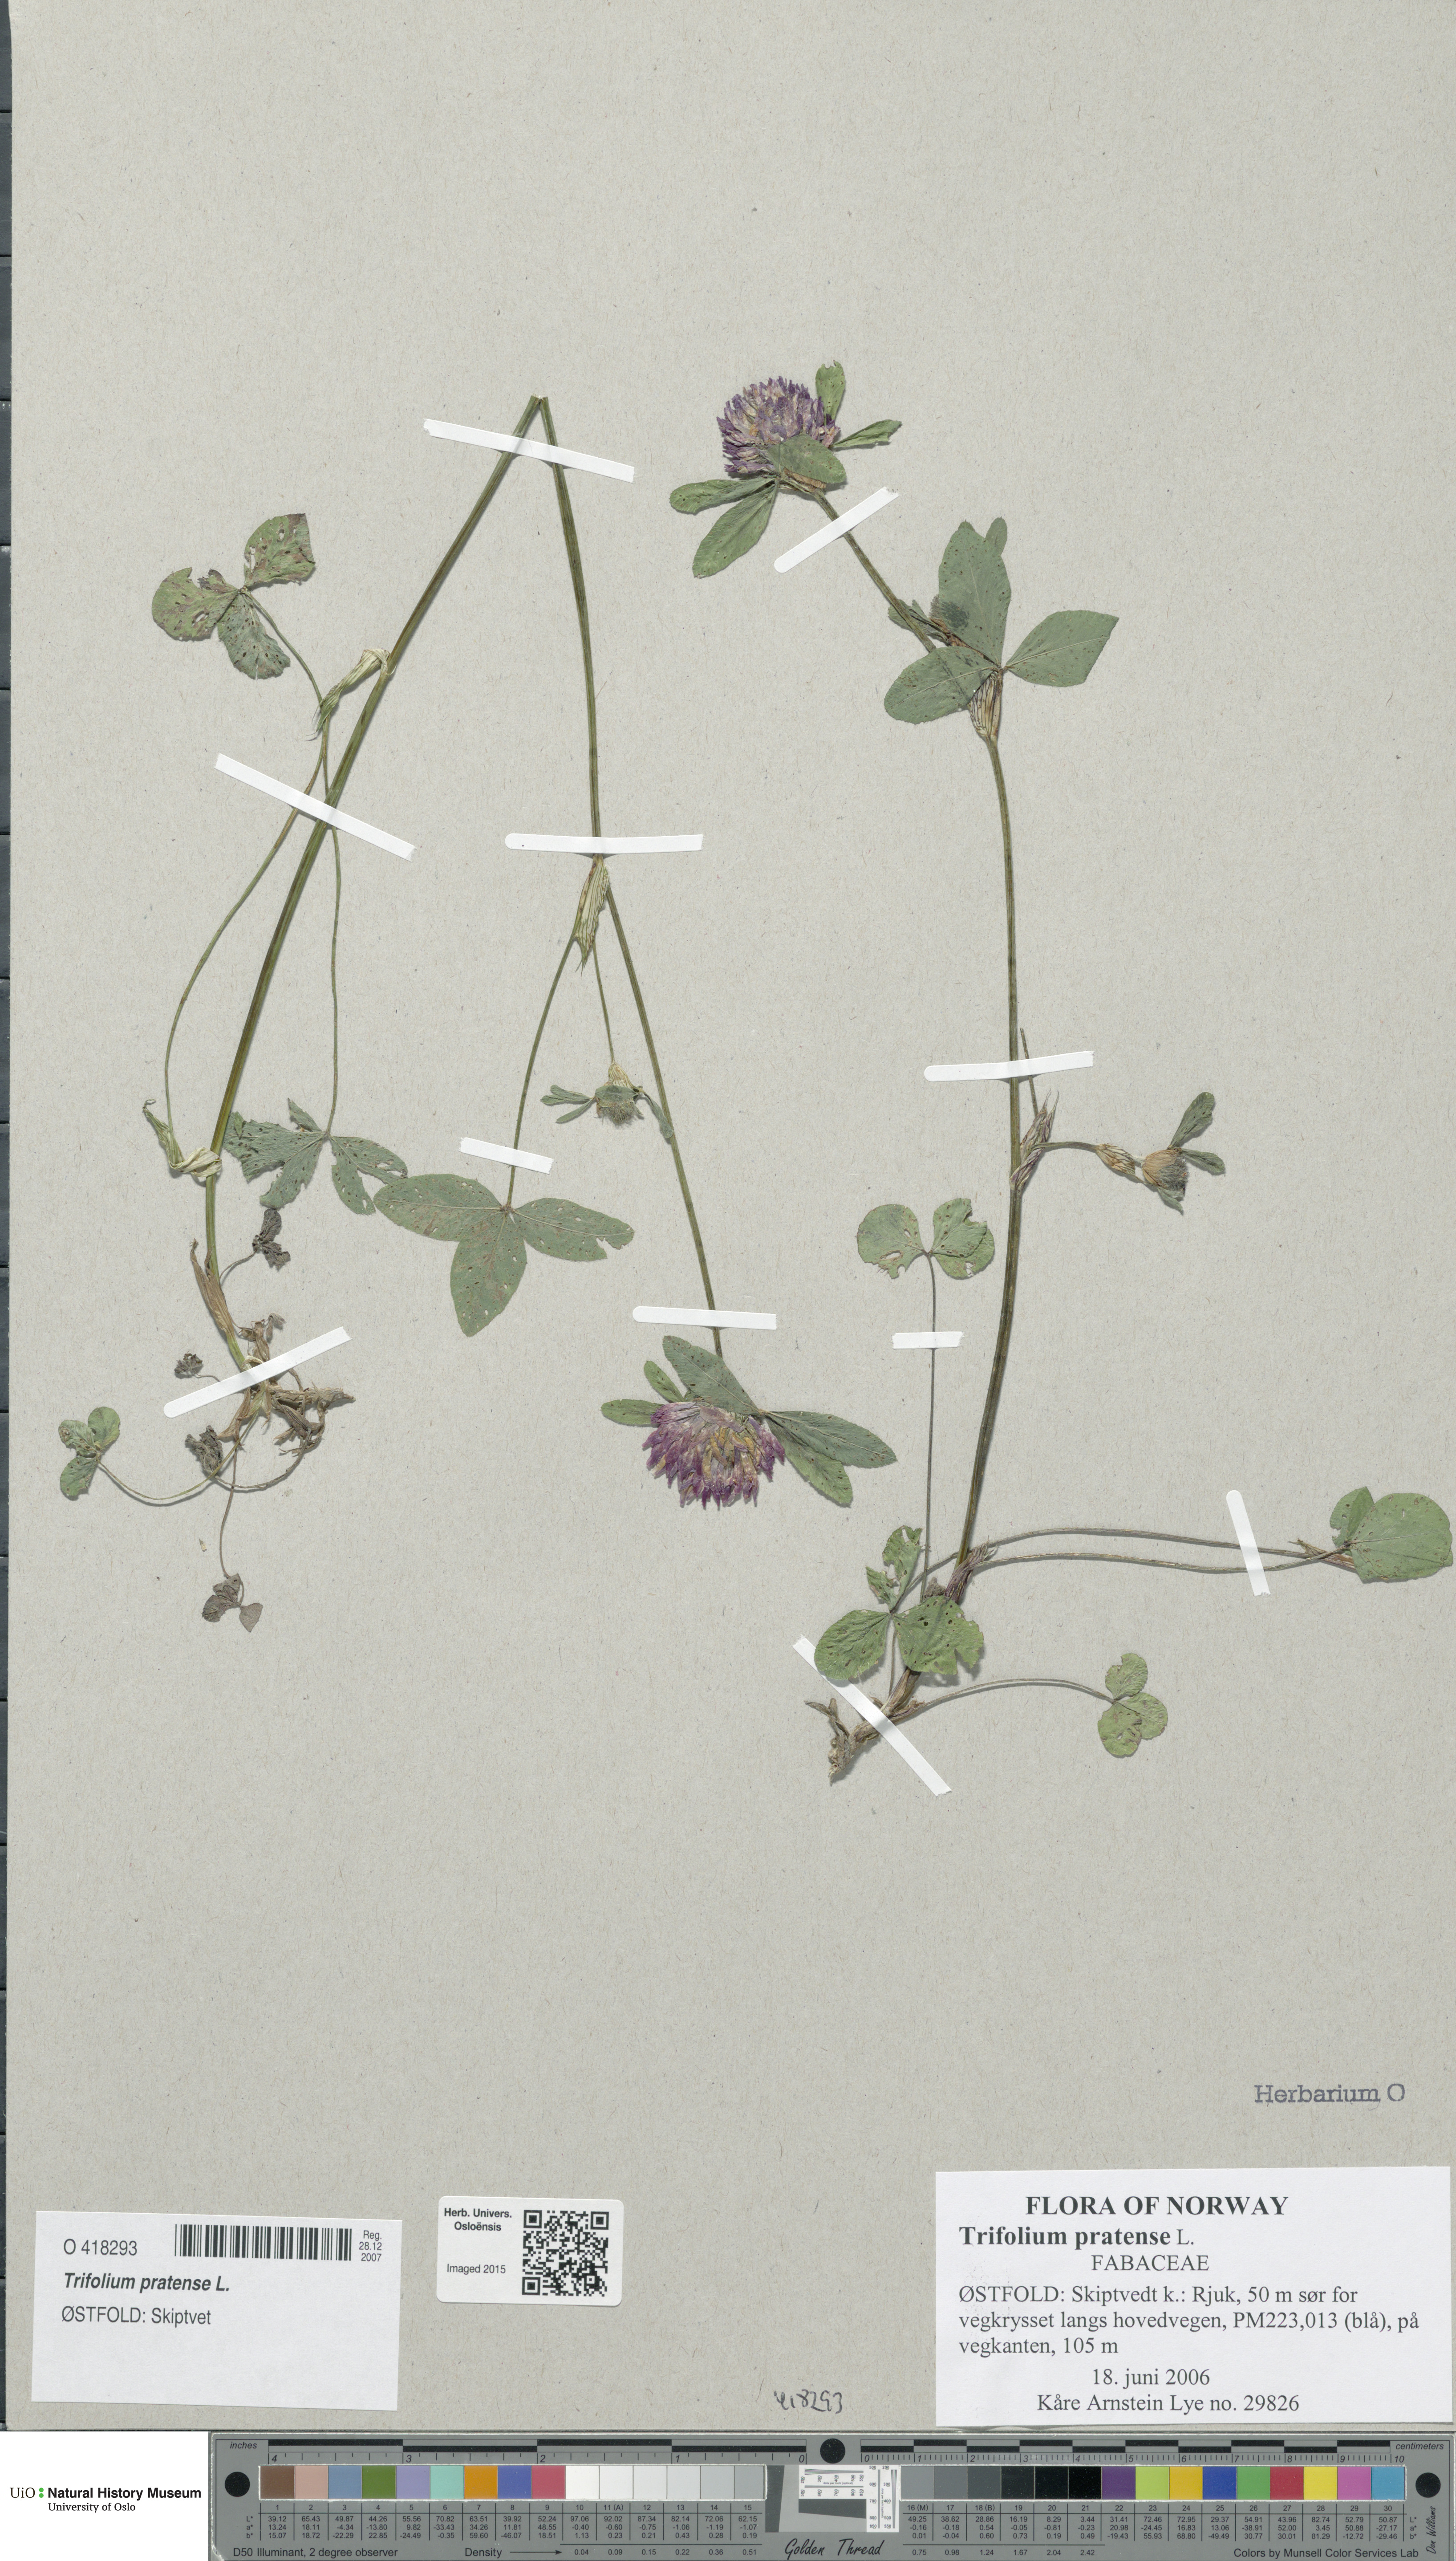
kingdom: Plantae
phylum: Tracheophyta
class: Magnoliopsida
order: Fabales
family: Fabaceae
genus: Trifolium
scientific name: Trifolium pratense
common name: Red clover
